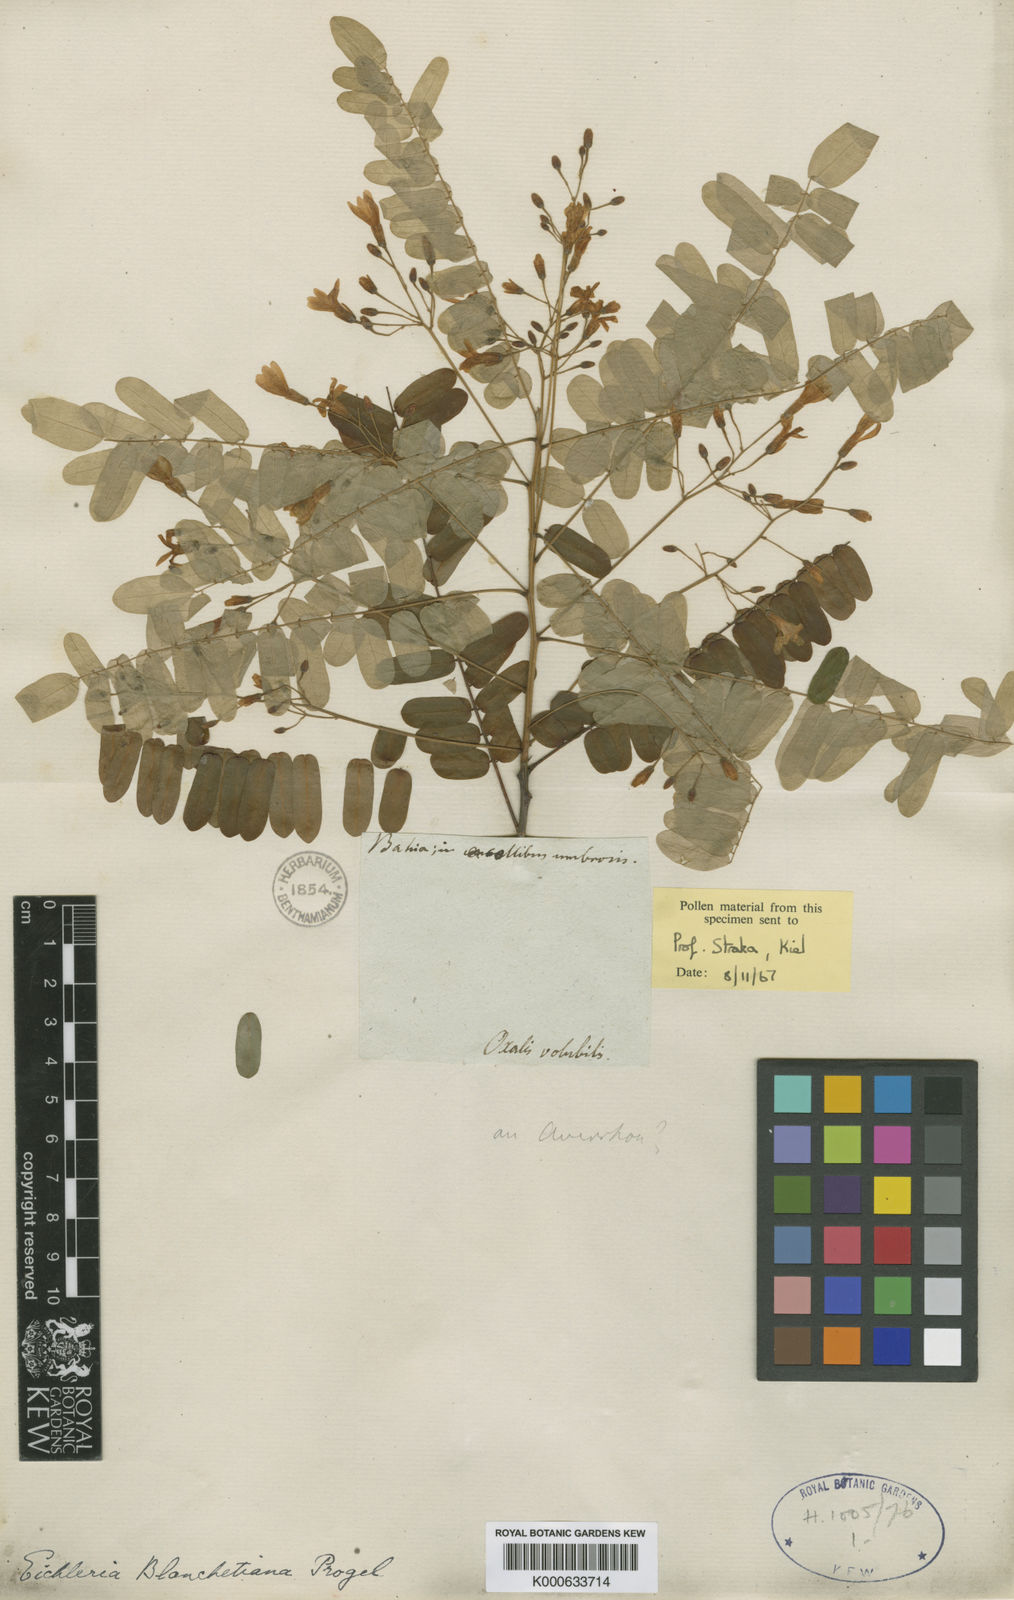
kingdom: Plantae
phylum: Tracheophyta
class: Magnoliopsida
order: Oxalidales
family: Connaraceae
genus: Rourea
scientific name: Rourea blanchetiana
